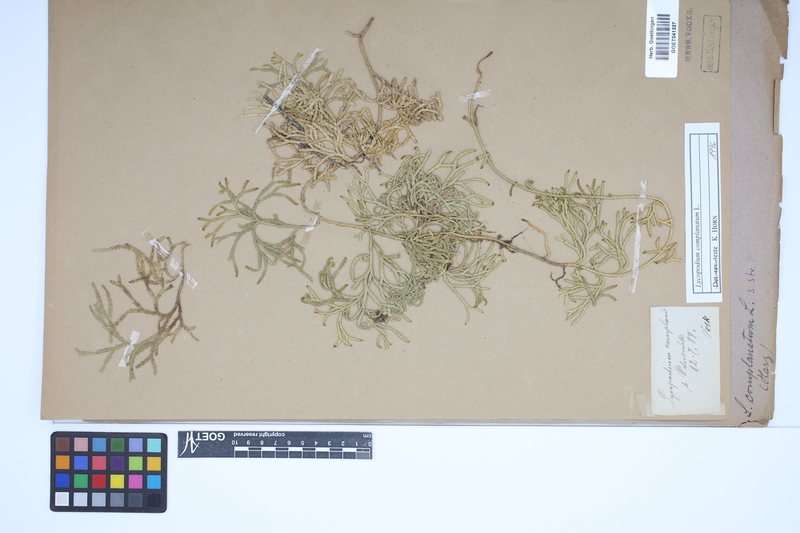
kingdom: Plantae
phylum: Tracheophyta
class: Lycopodiopsida
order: Lycopodiales
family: Lycopodiaceae
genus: Diphasiastrum
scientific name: Diphasiastrum complanatum
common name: Northern running-pine
